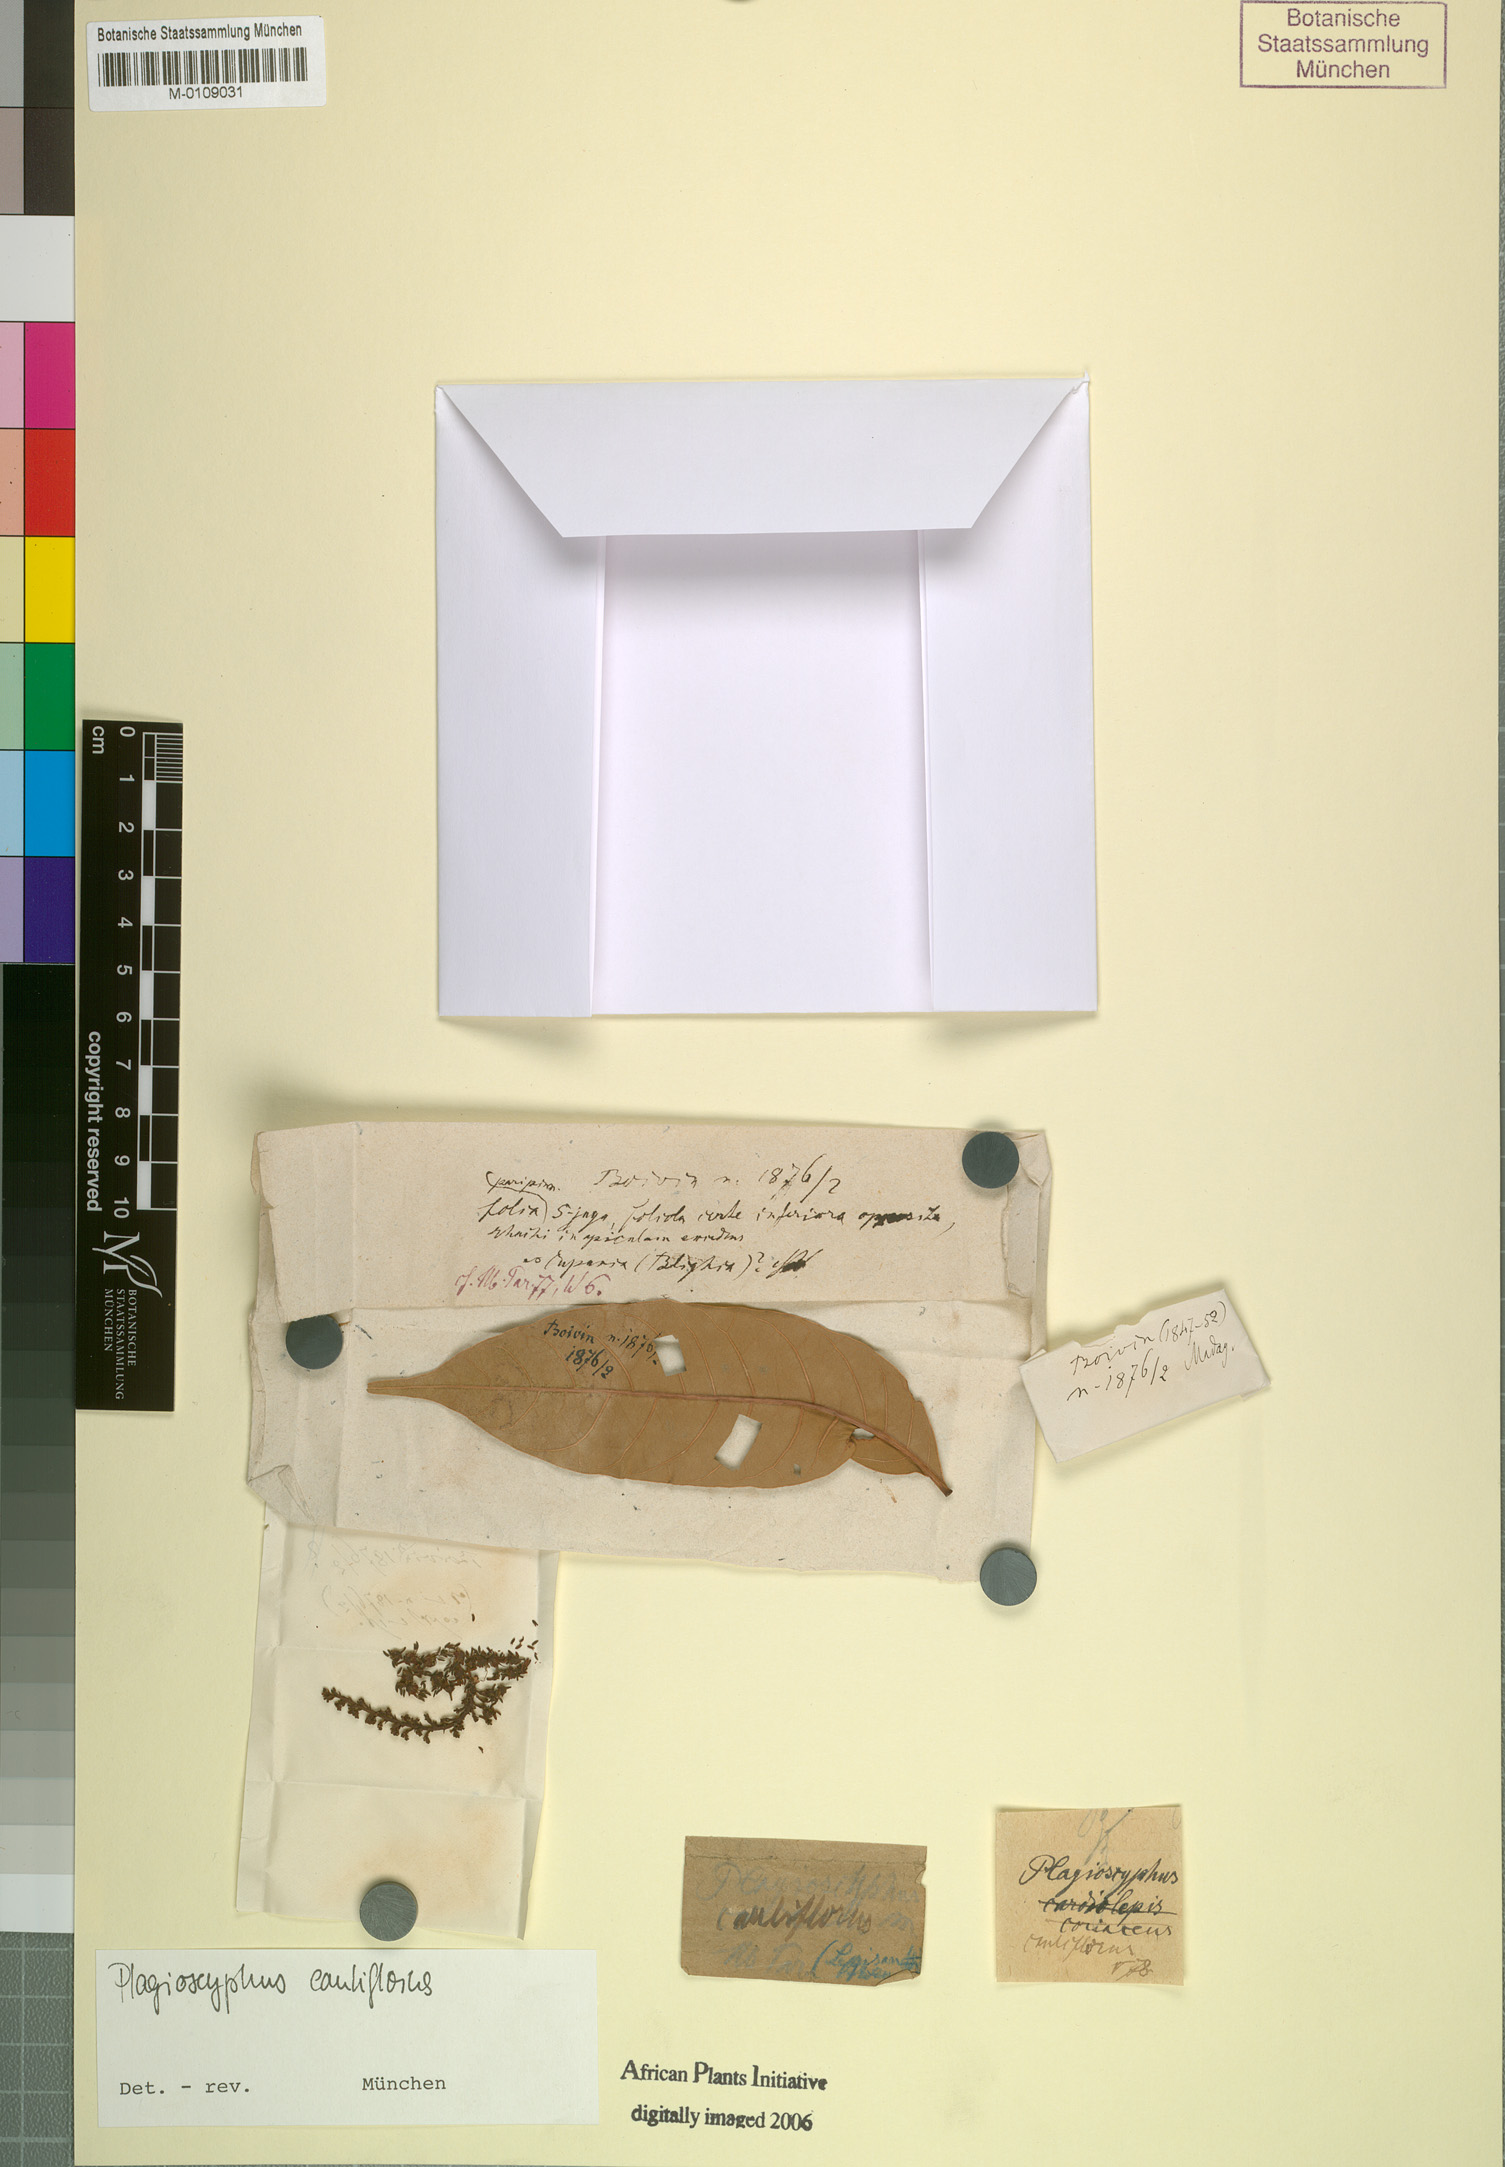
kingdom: Plantae
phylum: Tracheophyta
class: Magnoliopsida
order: Sapindales
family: Sapindaceae
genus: Plagioscyphus
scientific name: Plagioscyphus cauliflorus
